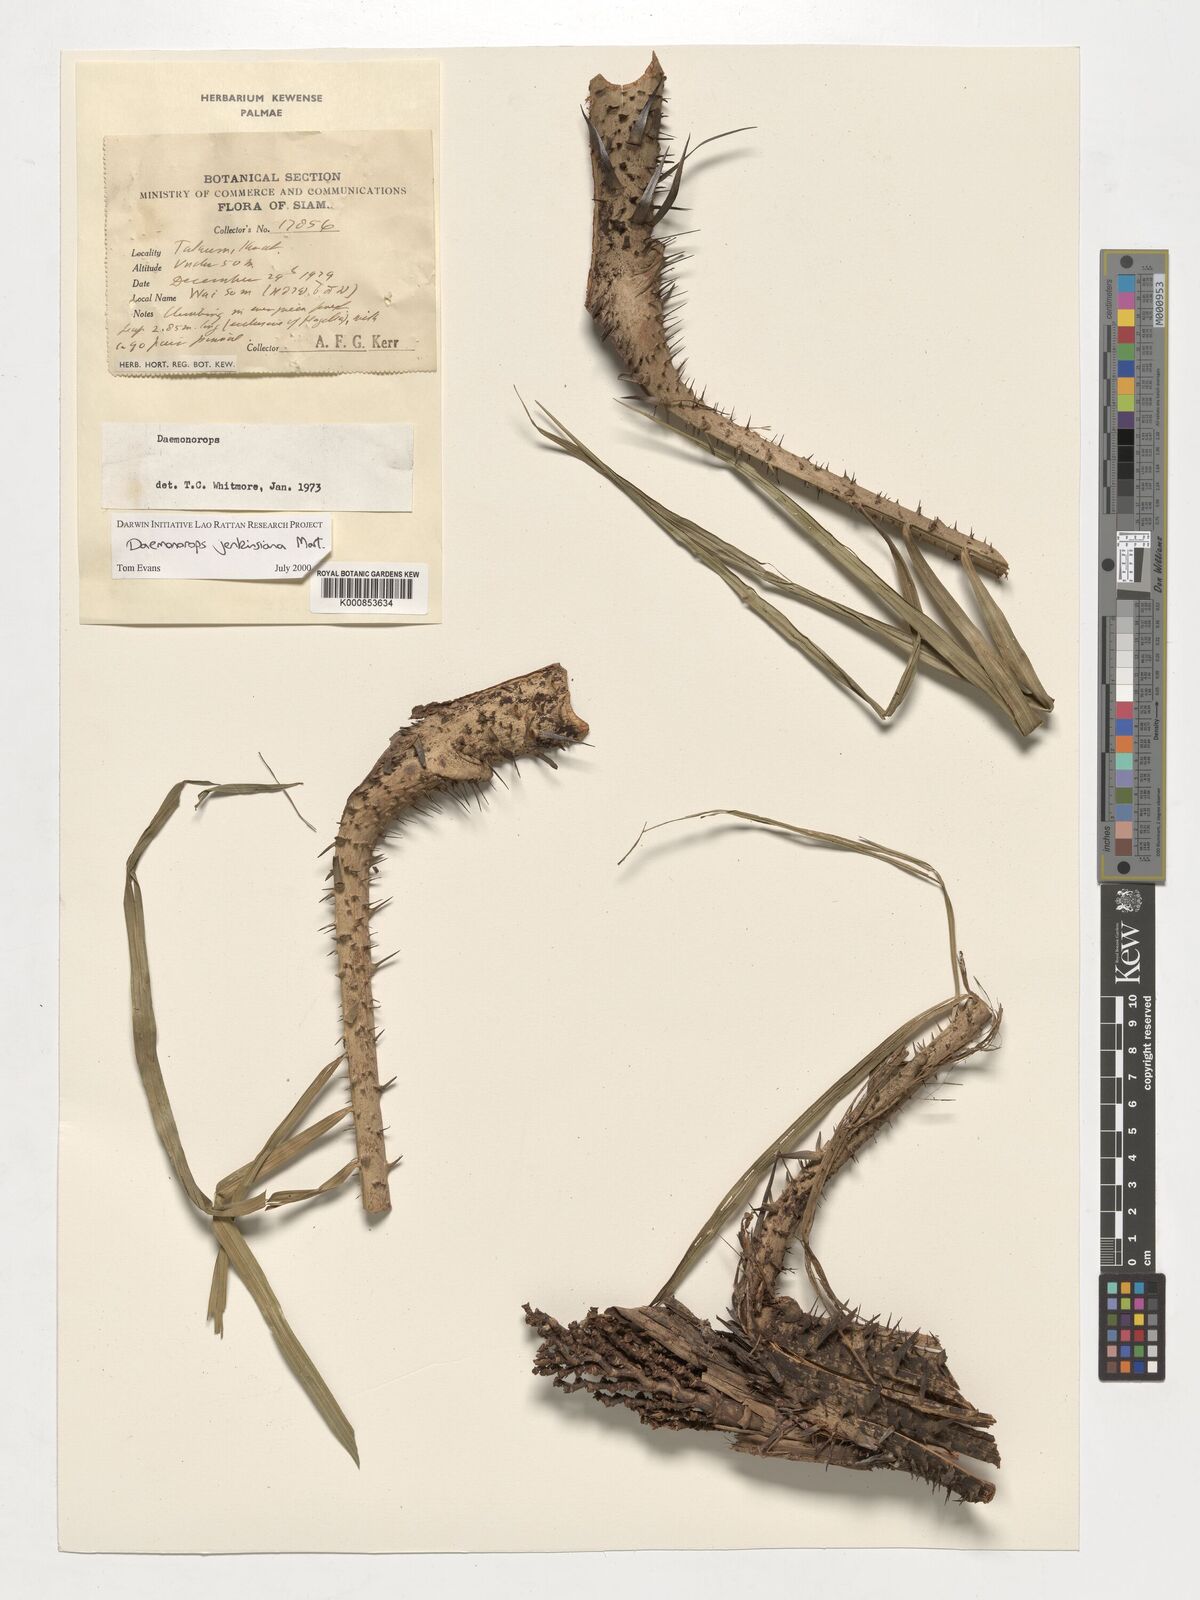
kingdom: Plantae
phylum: Tracheophyta
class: Liliopsida
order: Arecales
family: Arecaceae
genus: Calamus
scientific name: Calamus melanochaetes
